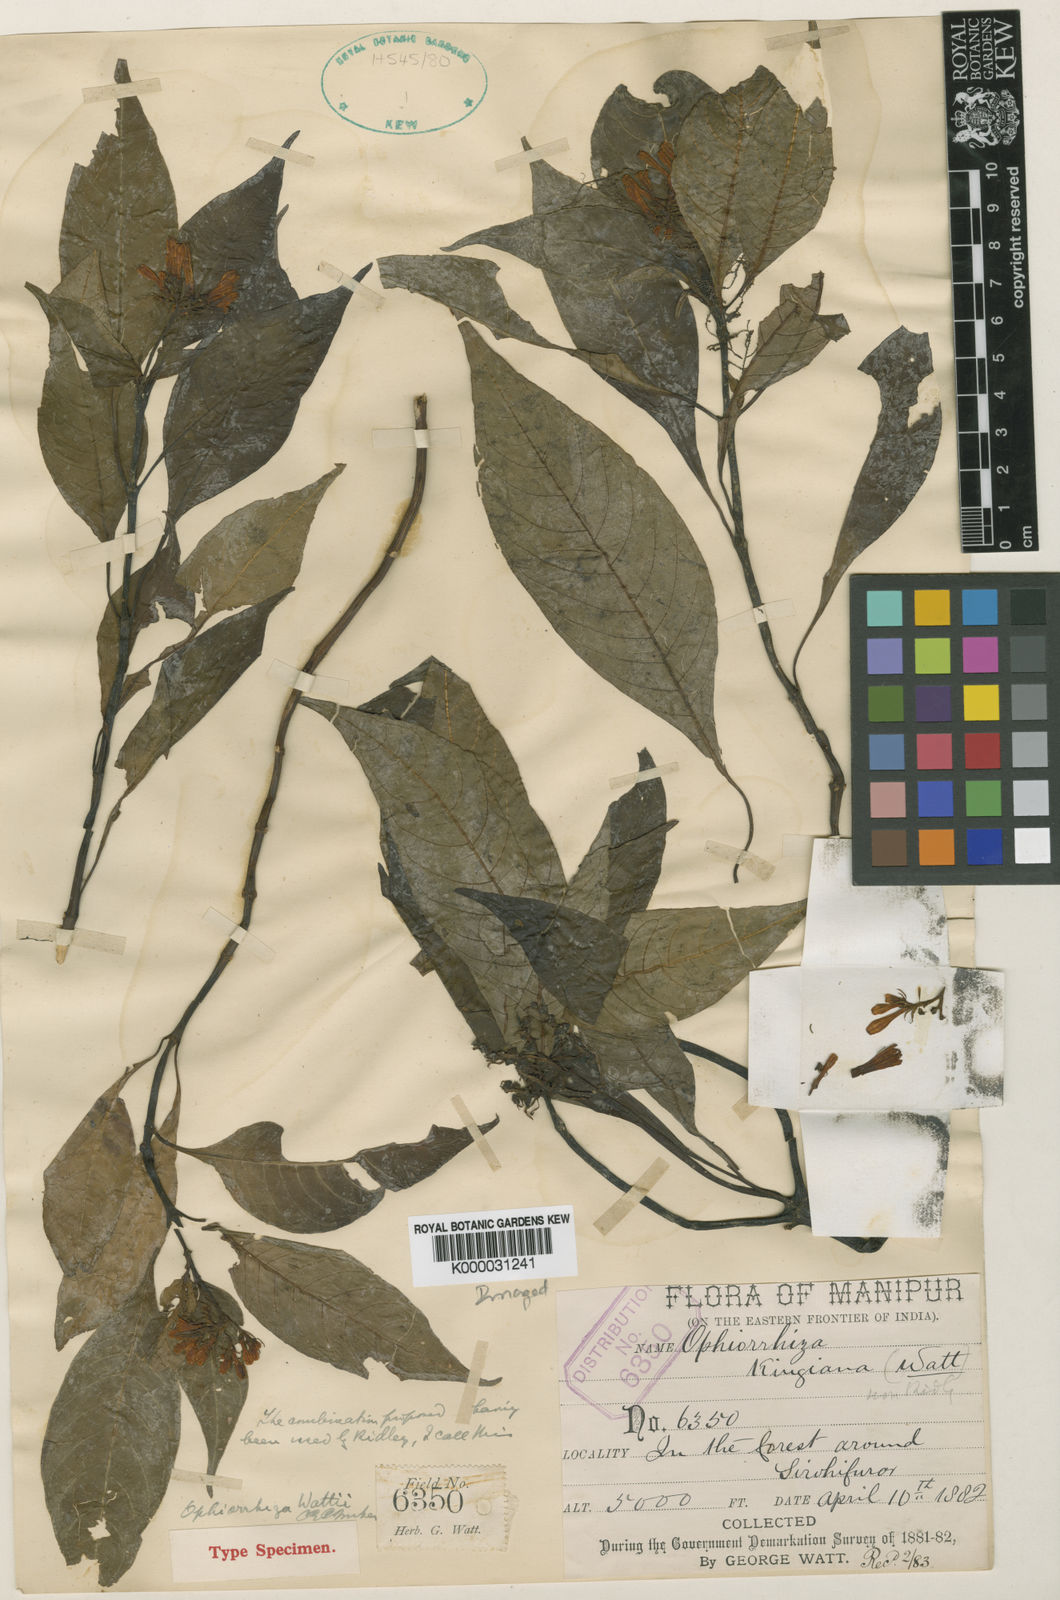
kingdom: Plantae
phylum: Tracheophyta
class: Magnoliopsida
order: Gentianales
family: Rubiaceae
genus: Ophiorrhiza
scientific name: Ophiorrhiza wattii
